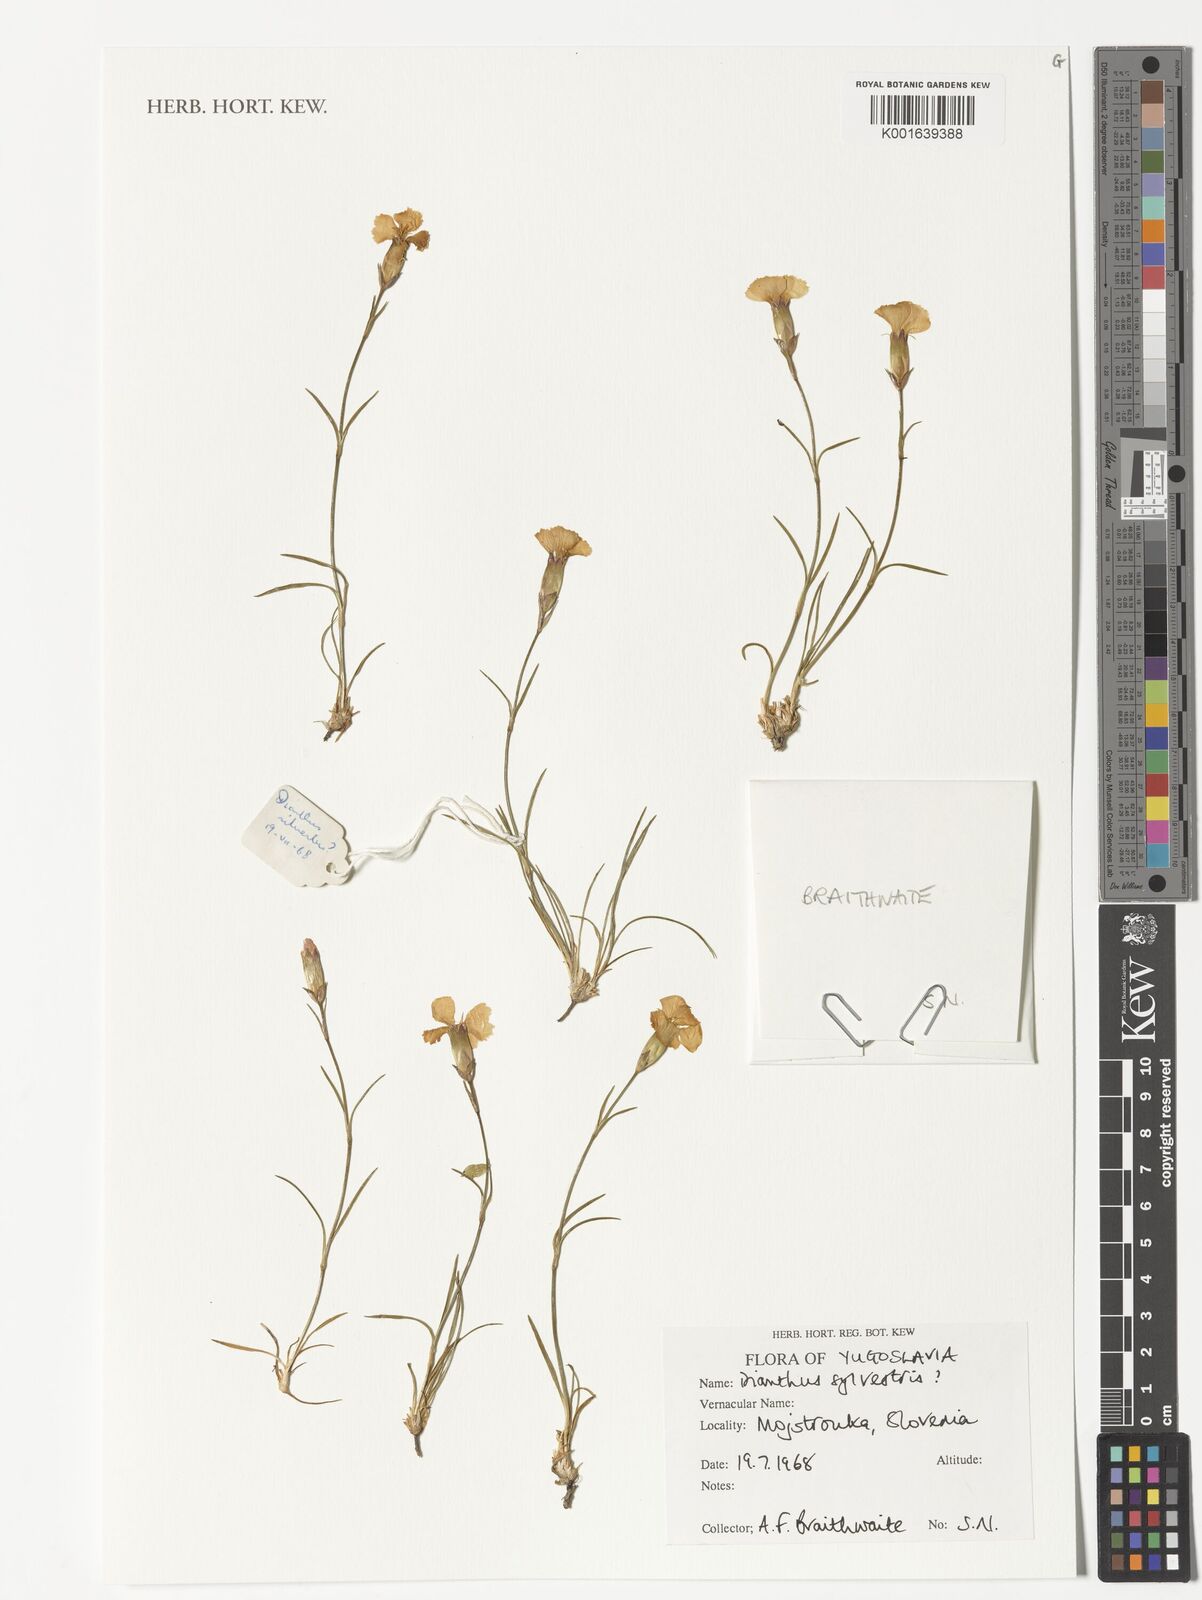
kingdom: Plantae
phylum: Tracheophyta
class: Magnoliopsida
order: Caryophyllales
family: Caryophyllaceae
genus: Dianthus
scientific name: Dianthus sylvestris
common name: Wood pink
